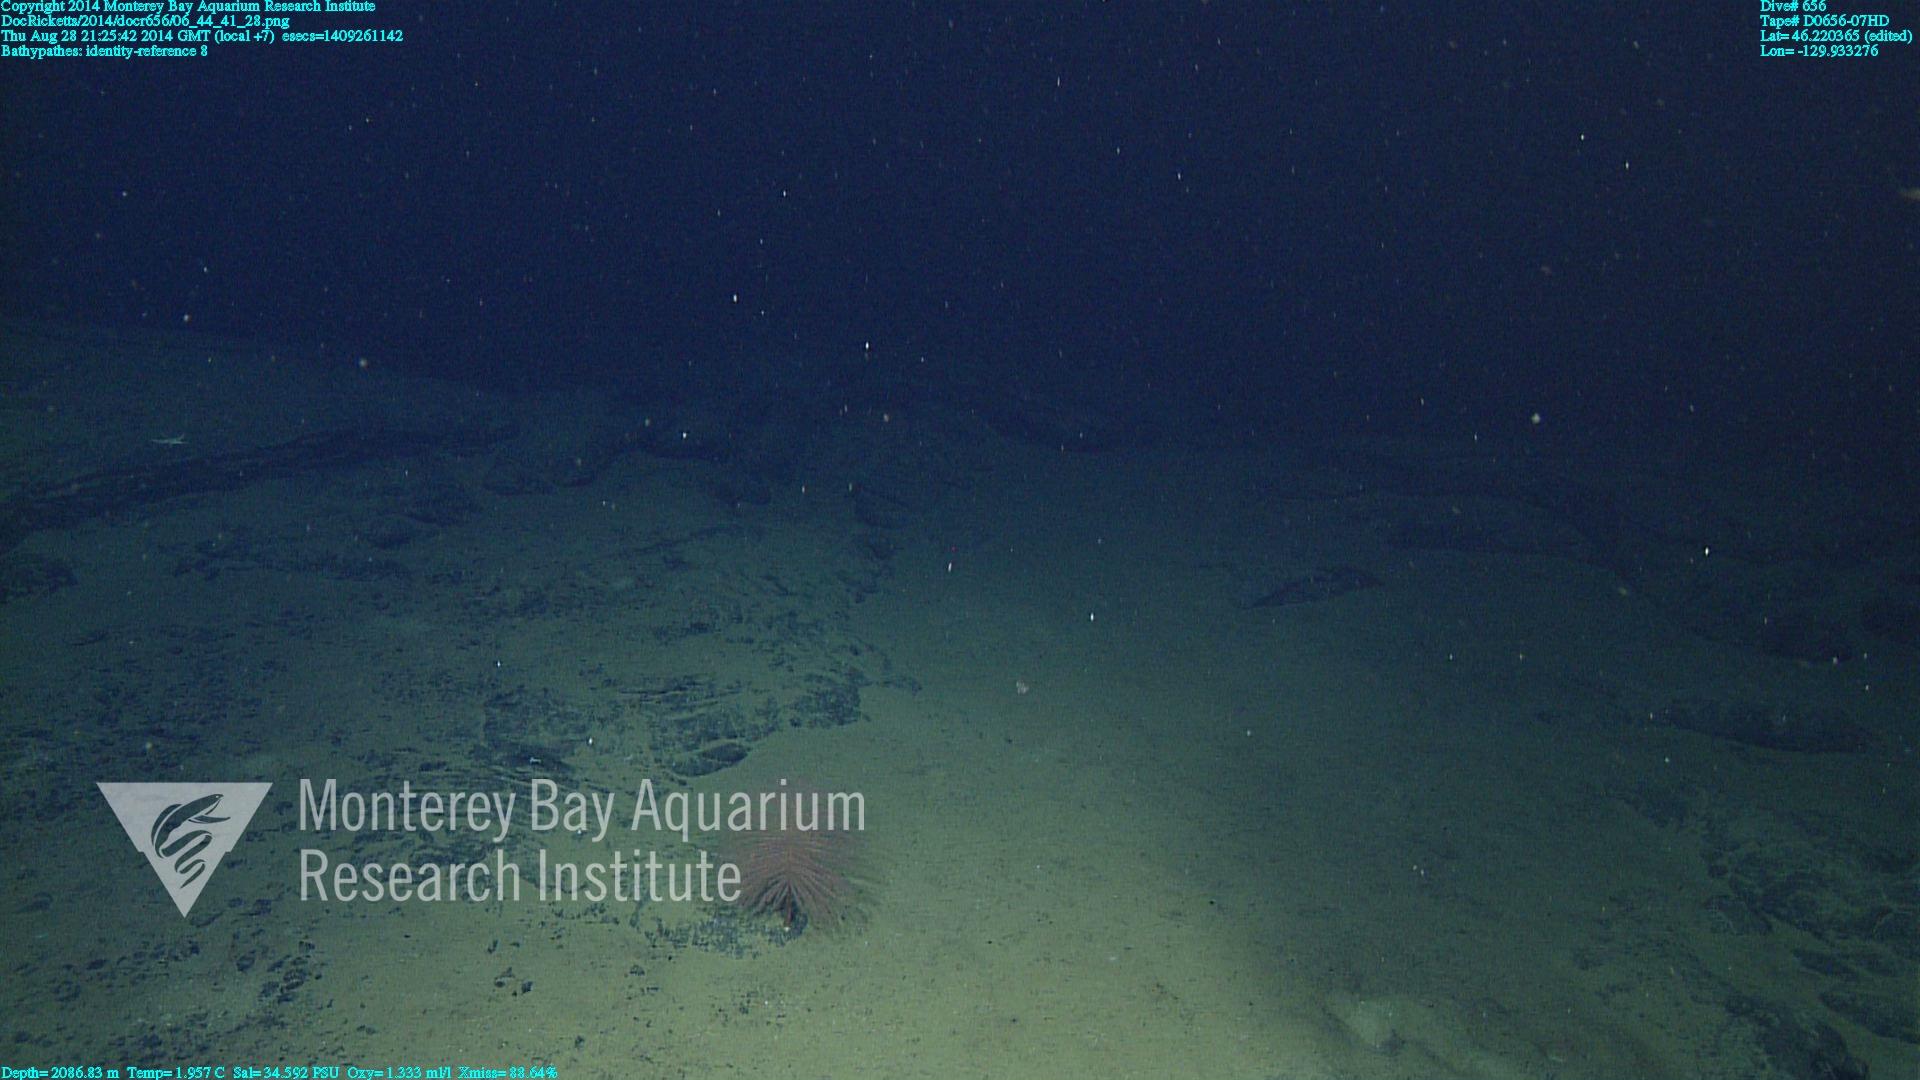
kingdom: Animalia
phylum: Cnidaria
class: Anthozoa
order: Antipatharia
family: Schizopathidae
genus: Bathypathes
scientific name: Bathypathes
